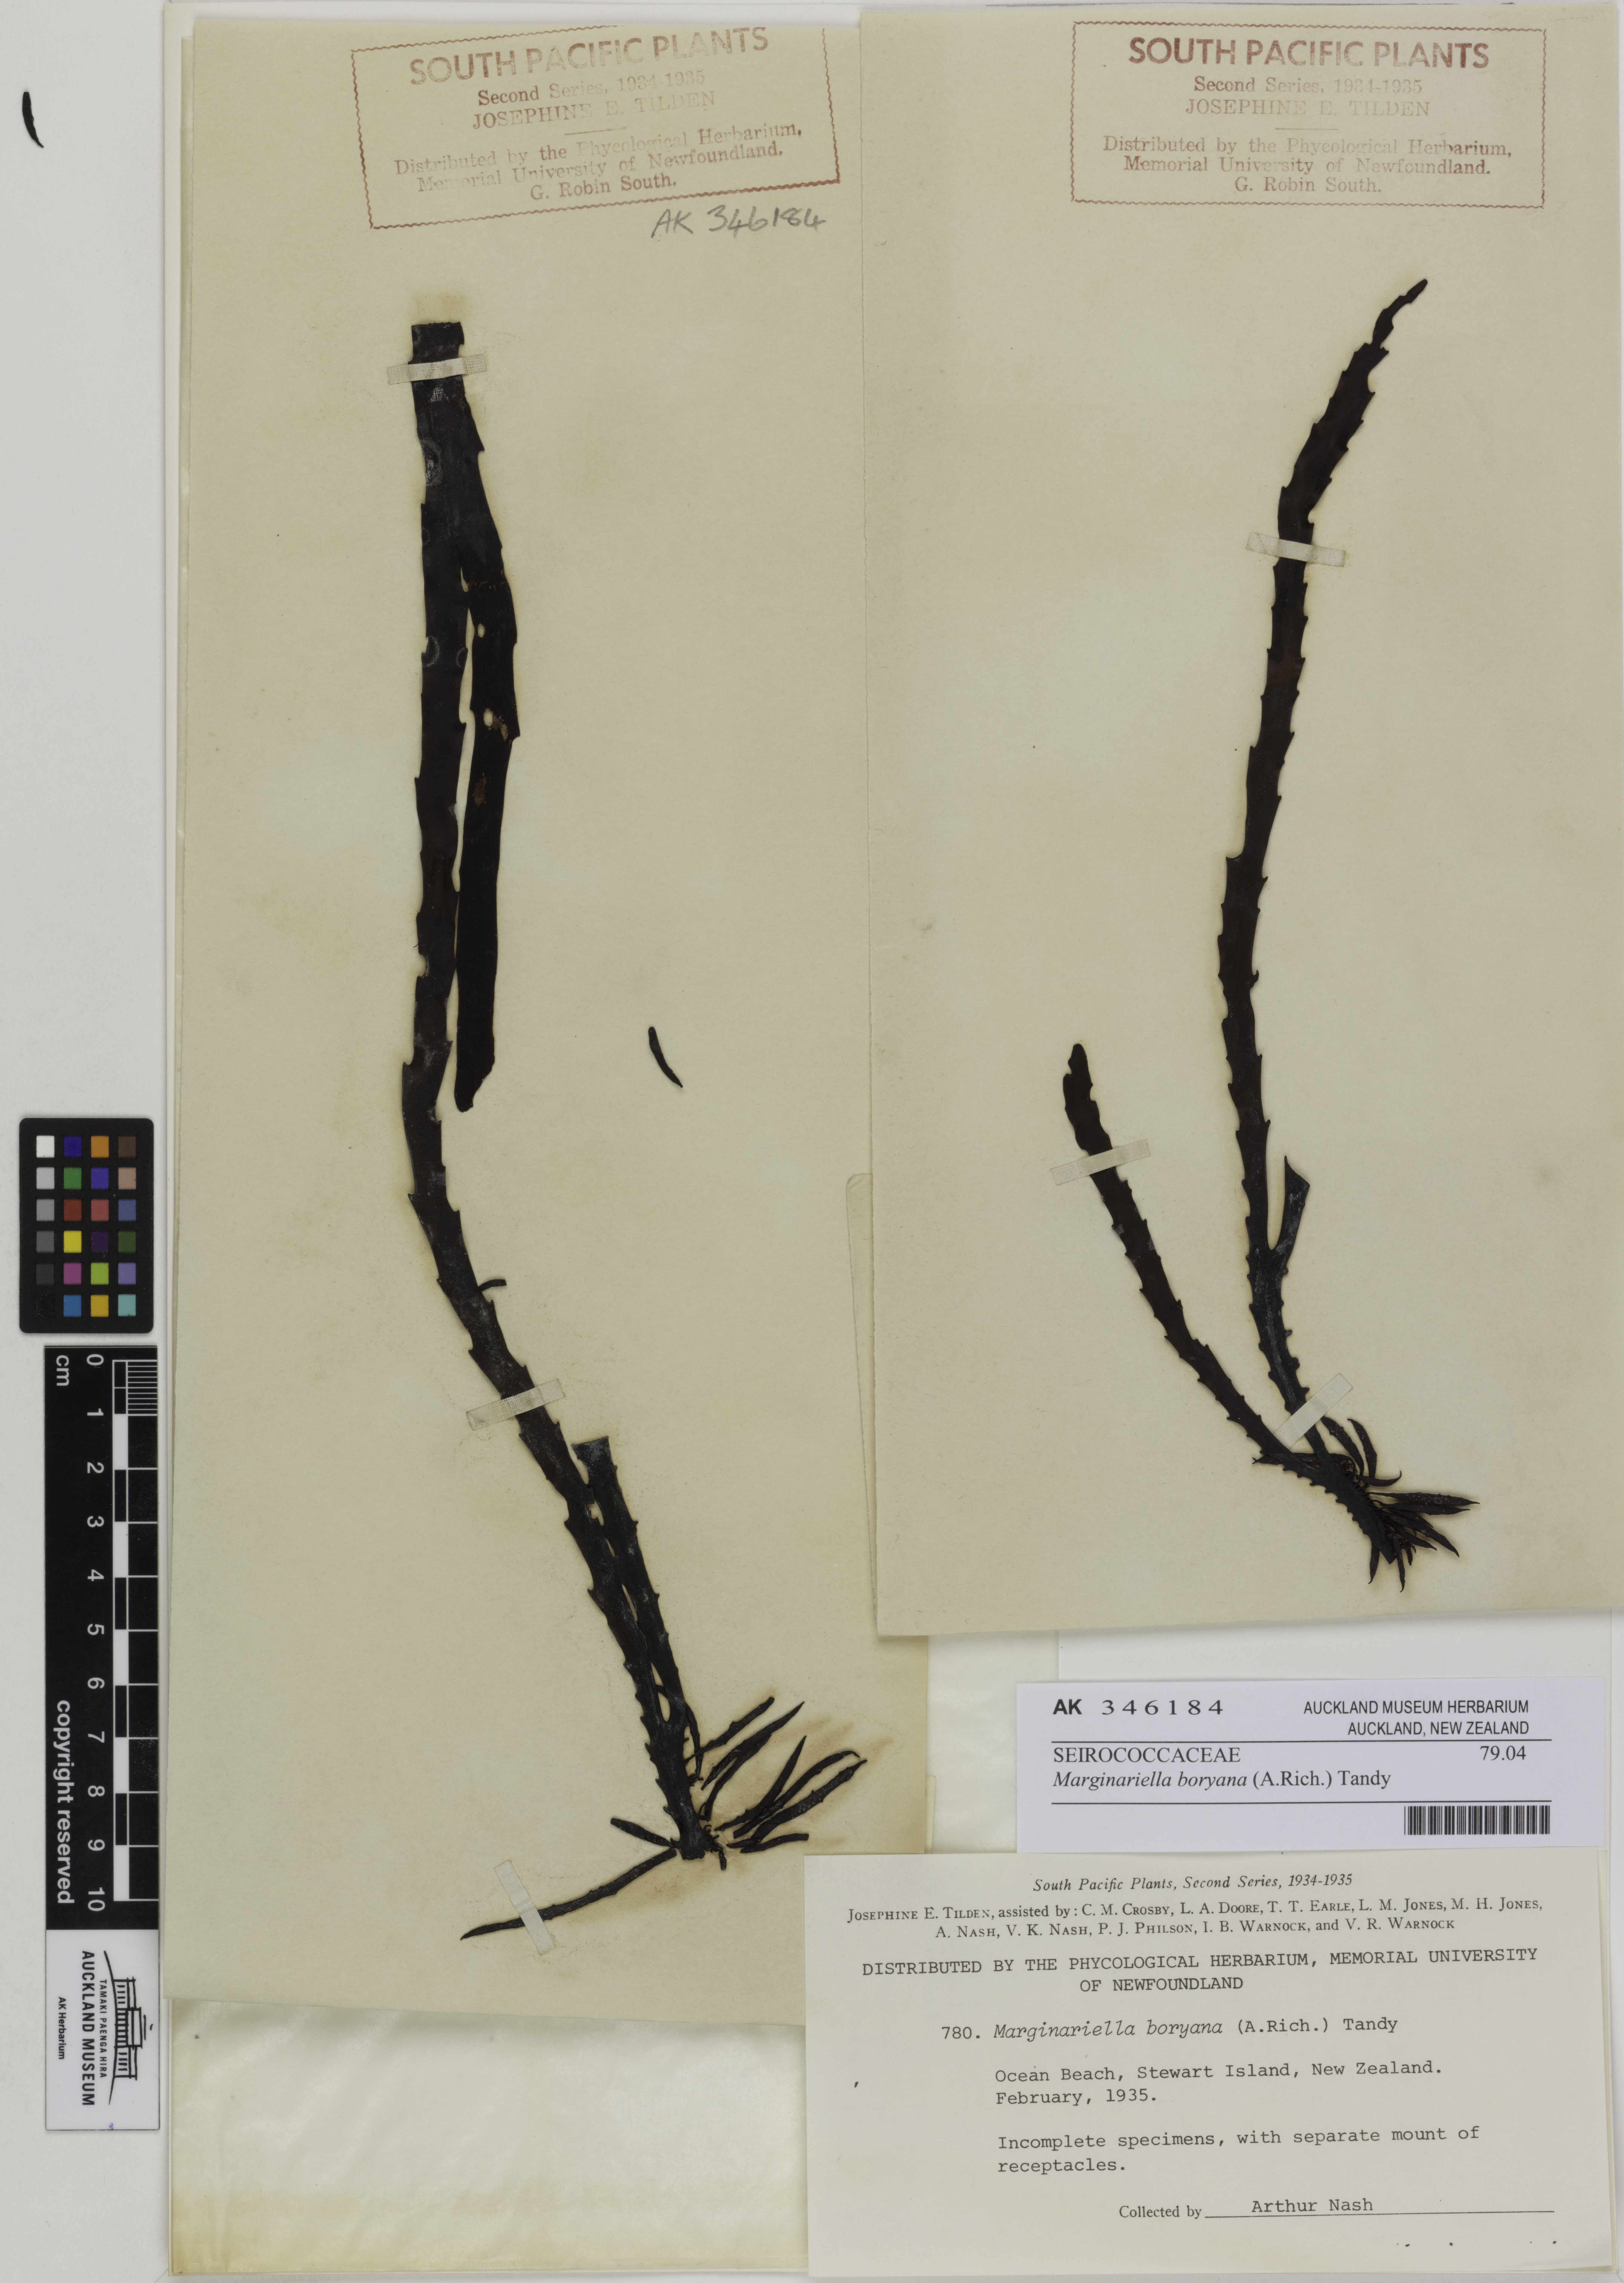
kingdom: Chromista
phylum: Ochrophyta
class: Phaeophyceae
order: Fucales
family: Seirococcaceae
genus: Marginariella
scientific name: Marginariella boryana
